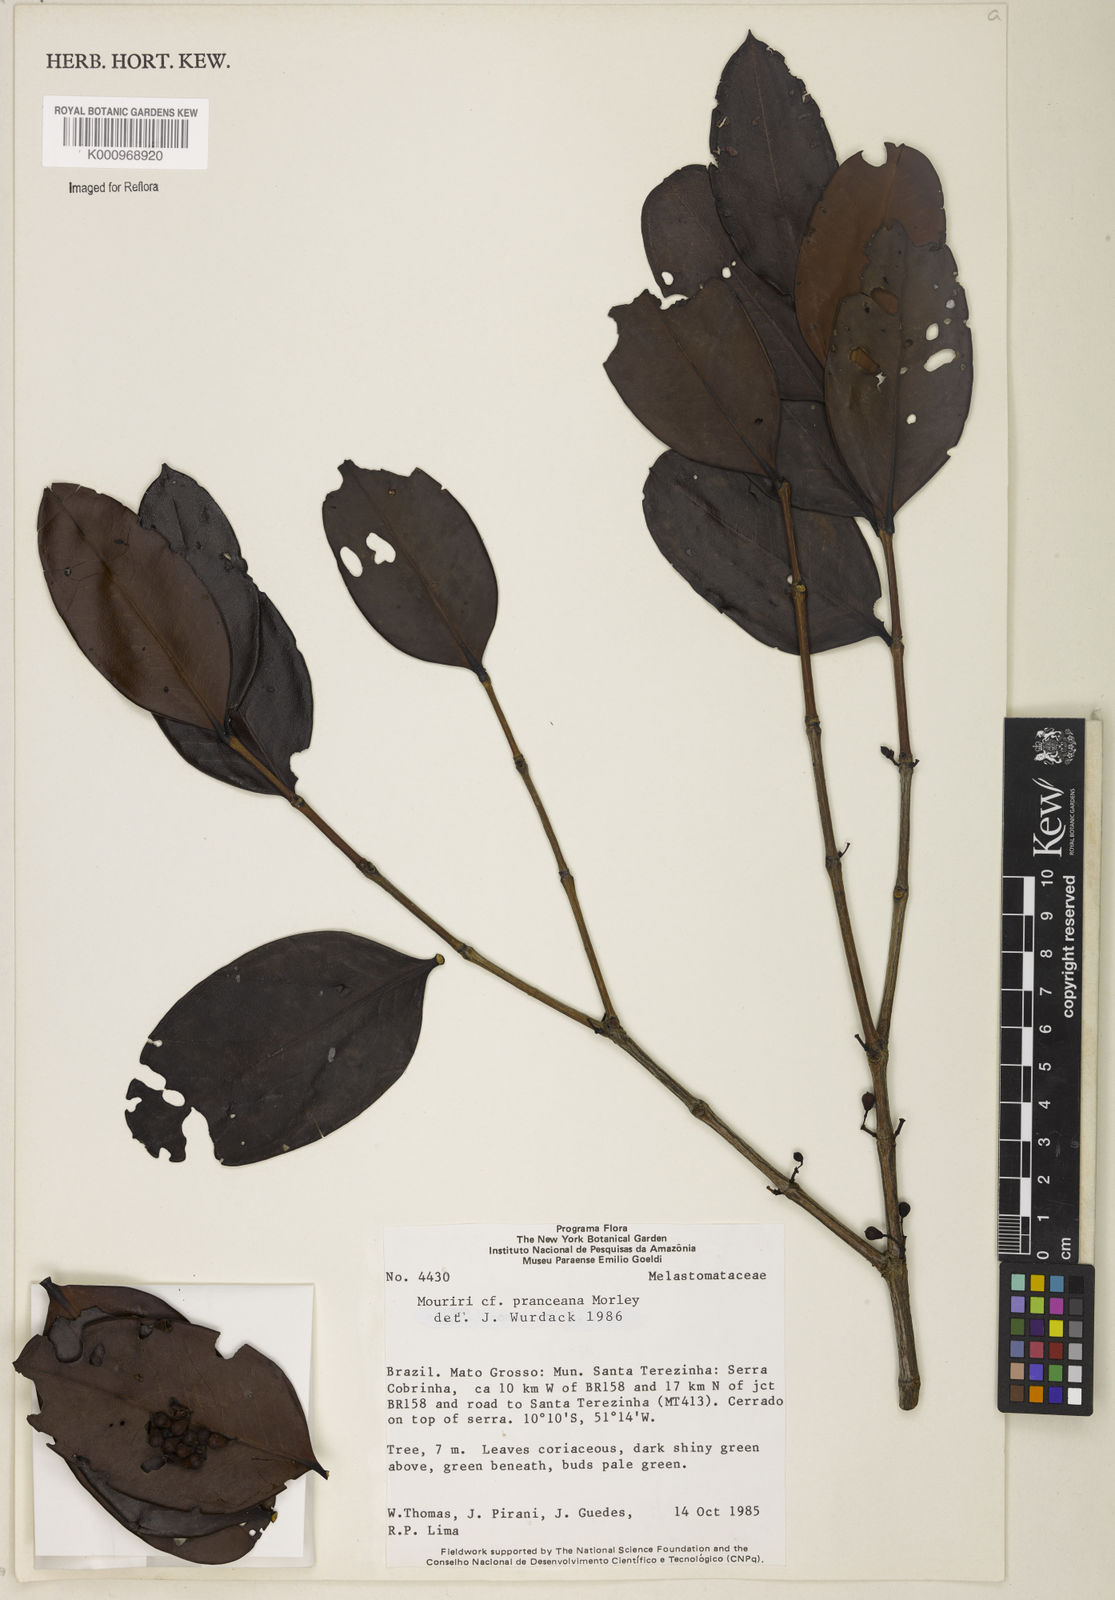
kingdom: Plantae
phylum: Tracheophyta
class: Magnoliopsida
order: Myrtales
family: Melastomataceae
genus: Mouriri
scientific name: Mouriri pranceana
